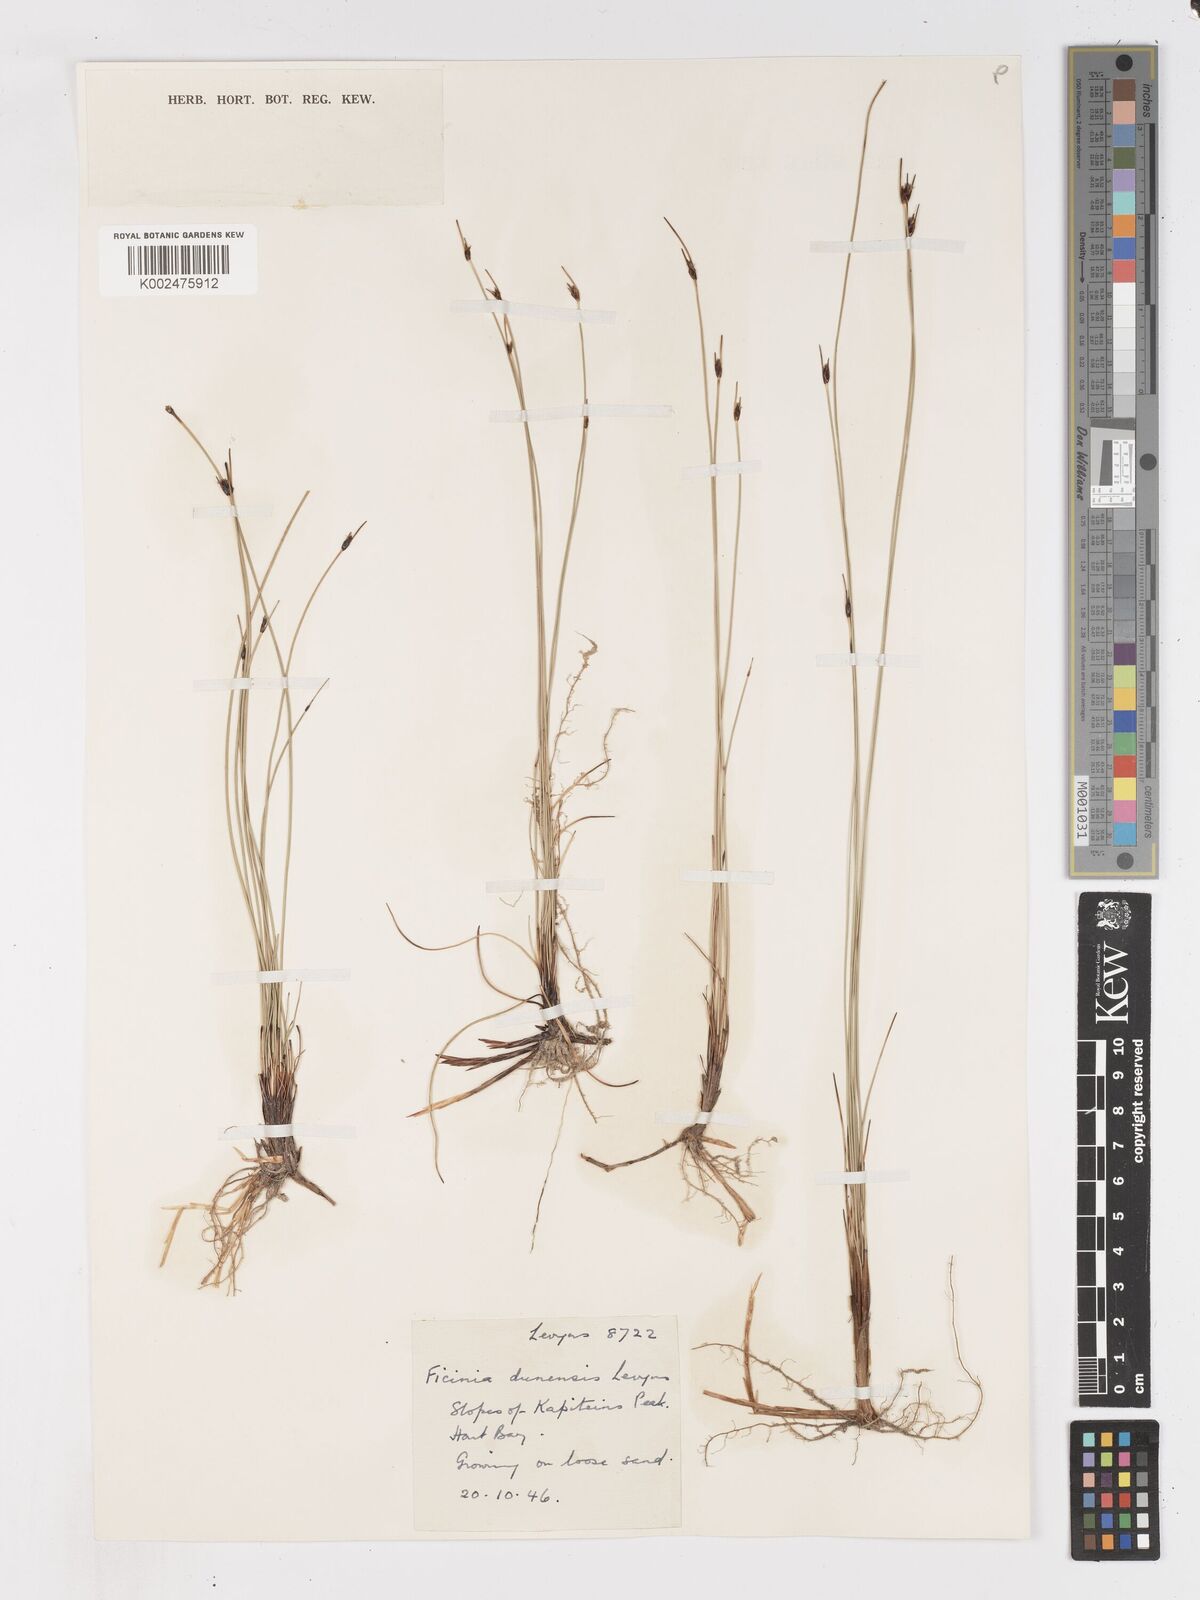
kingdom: Plantae
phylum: Tracheophyta
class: Liliopsida
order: Poales
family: Cyperaceae
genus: Ficinia
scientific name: Ficinia dunensis
